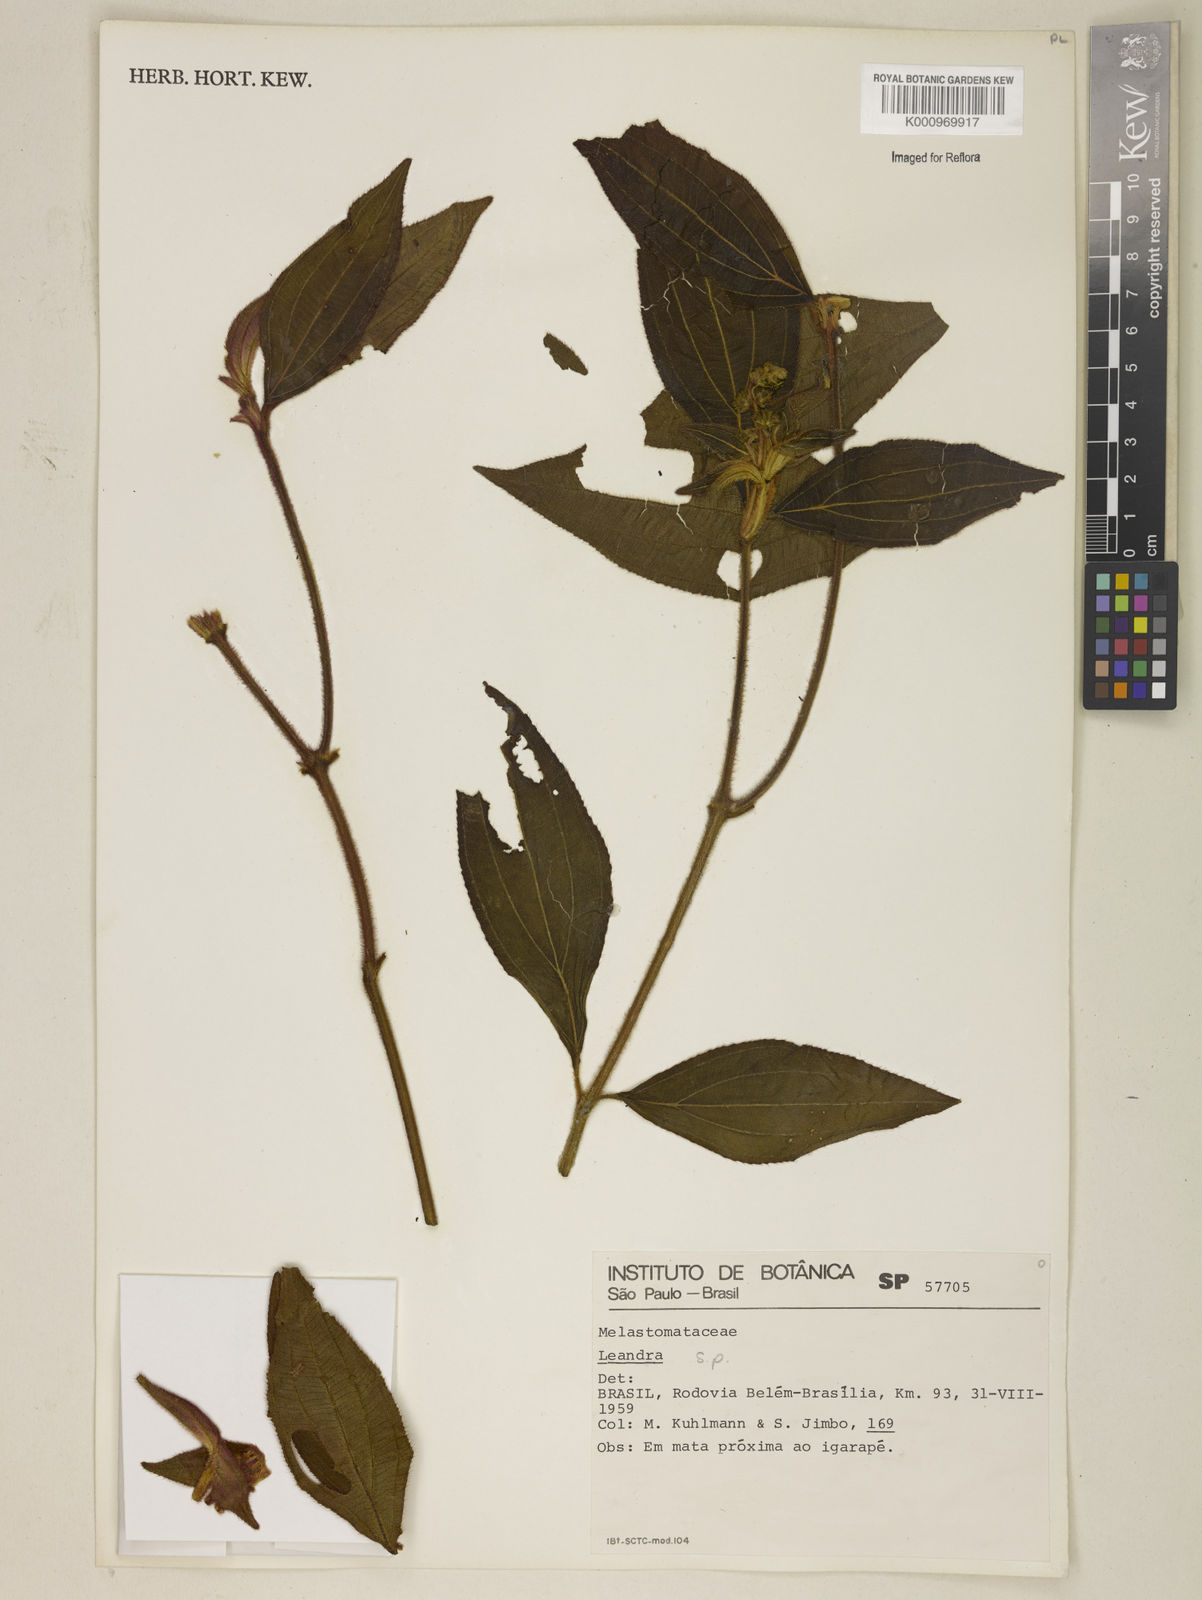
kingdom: Plantae
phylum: Tracheophyta
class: Magnoliopsida
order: Myrtales
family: Melastomataceae
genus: Miconia
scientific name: Miconia
